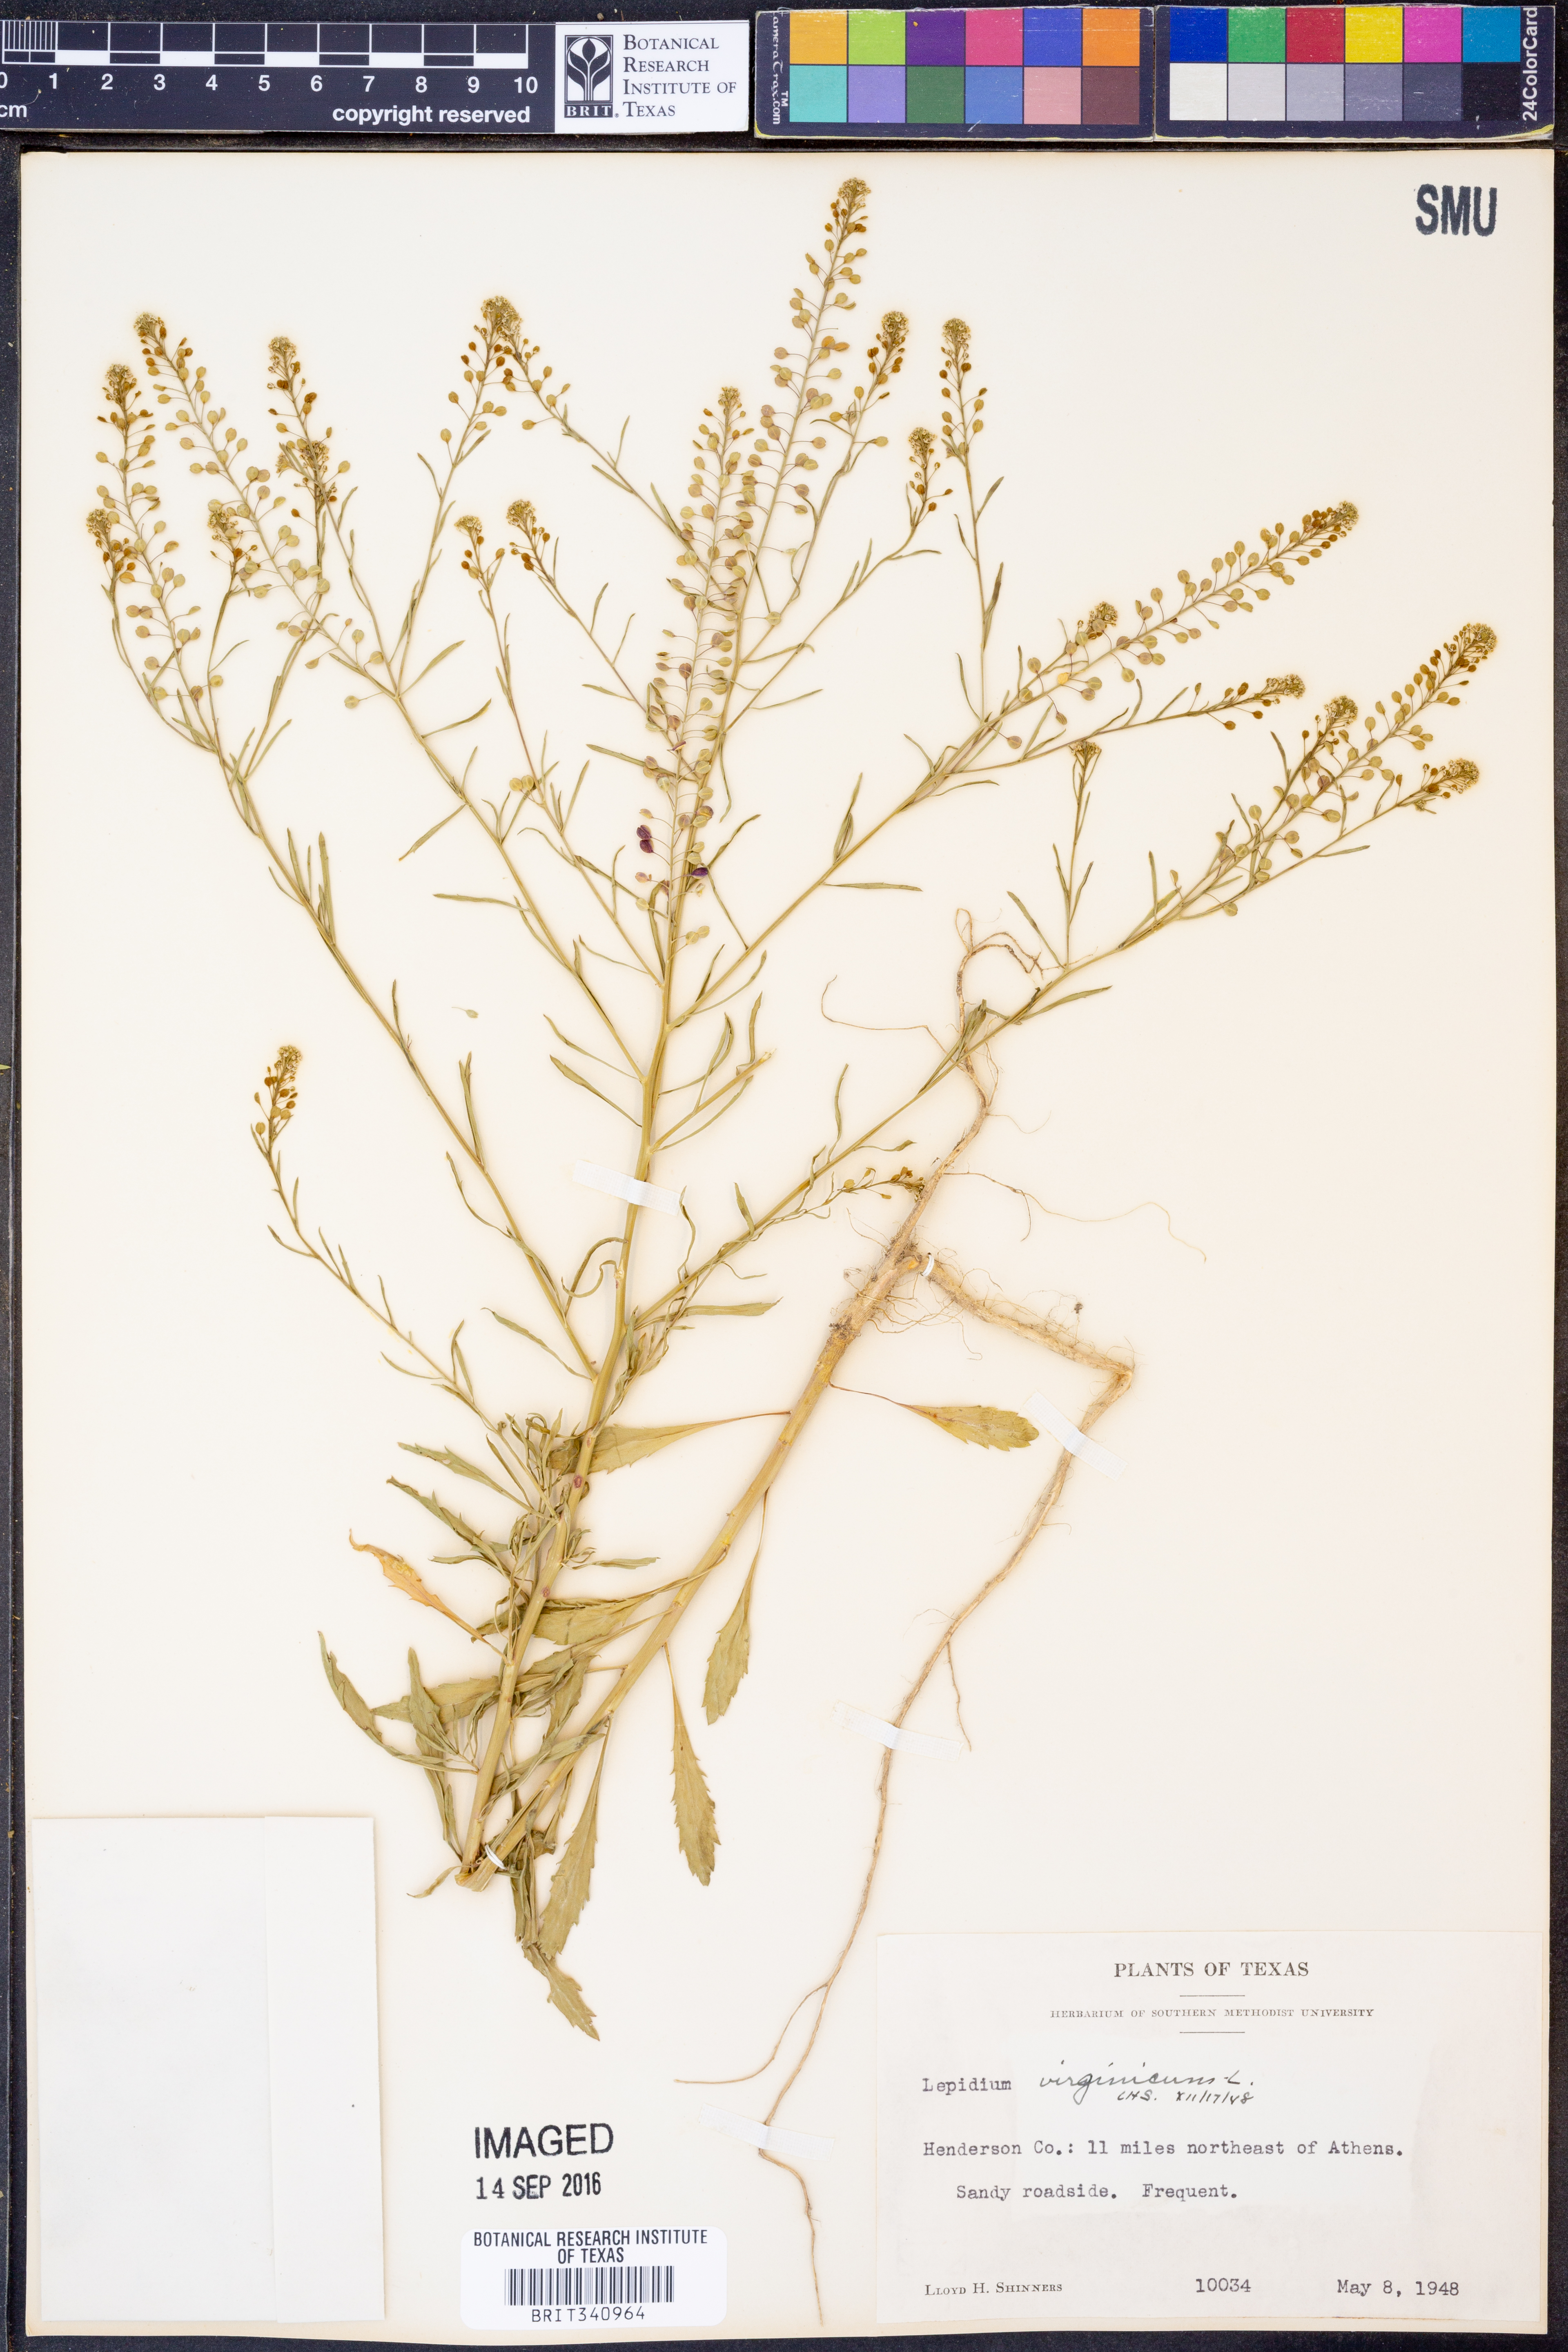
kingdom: Plantae
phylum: Tracheophyta
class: Magnoliopsida
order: Brassicales
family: Brassicaceae
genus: Lepidium
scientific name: Lepidium virginicum
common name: Least pepperwort
